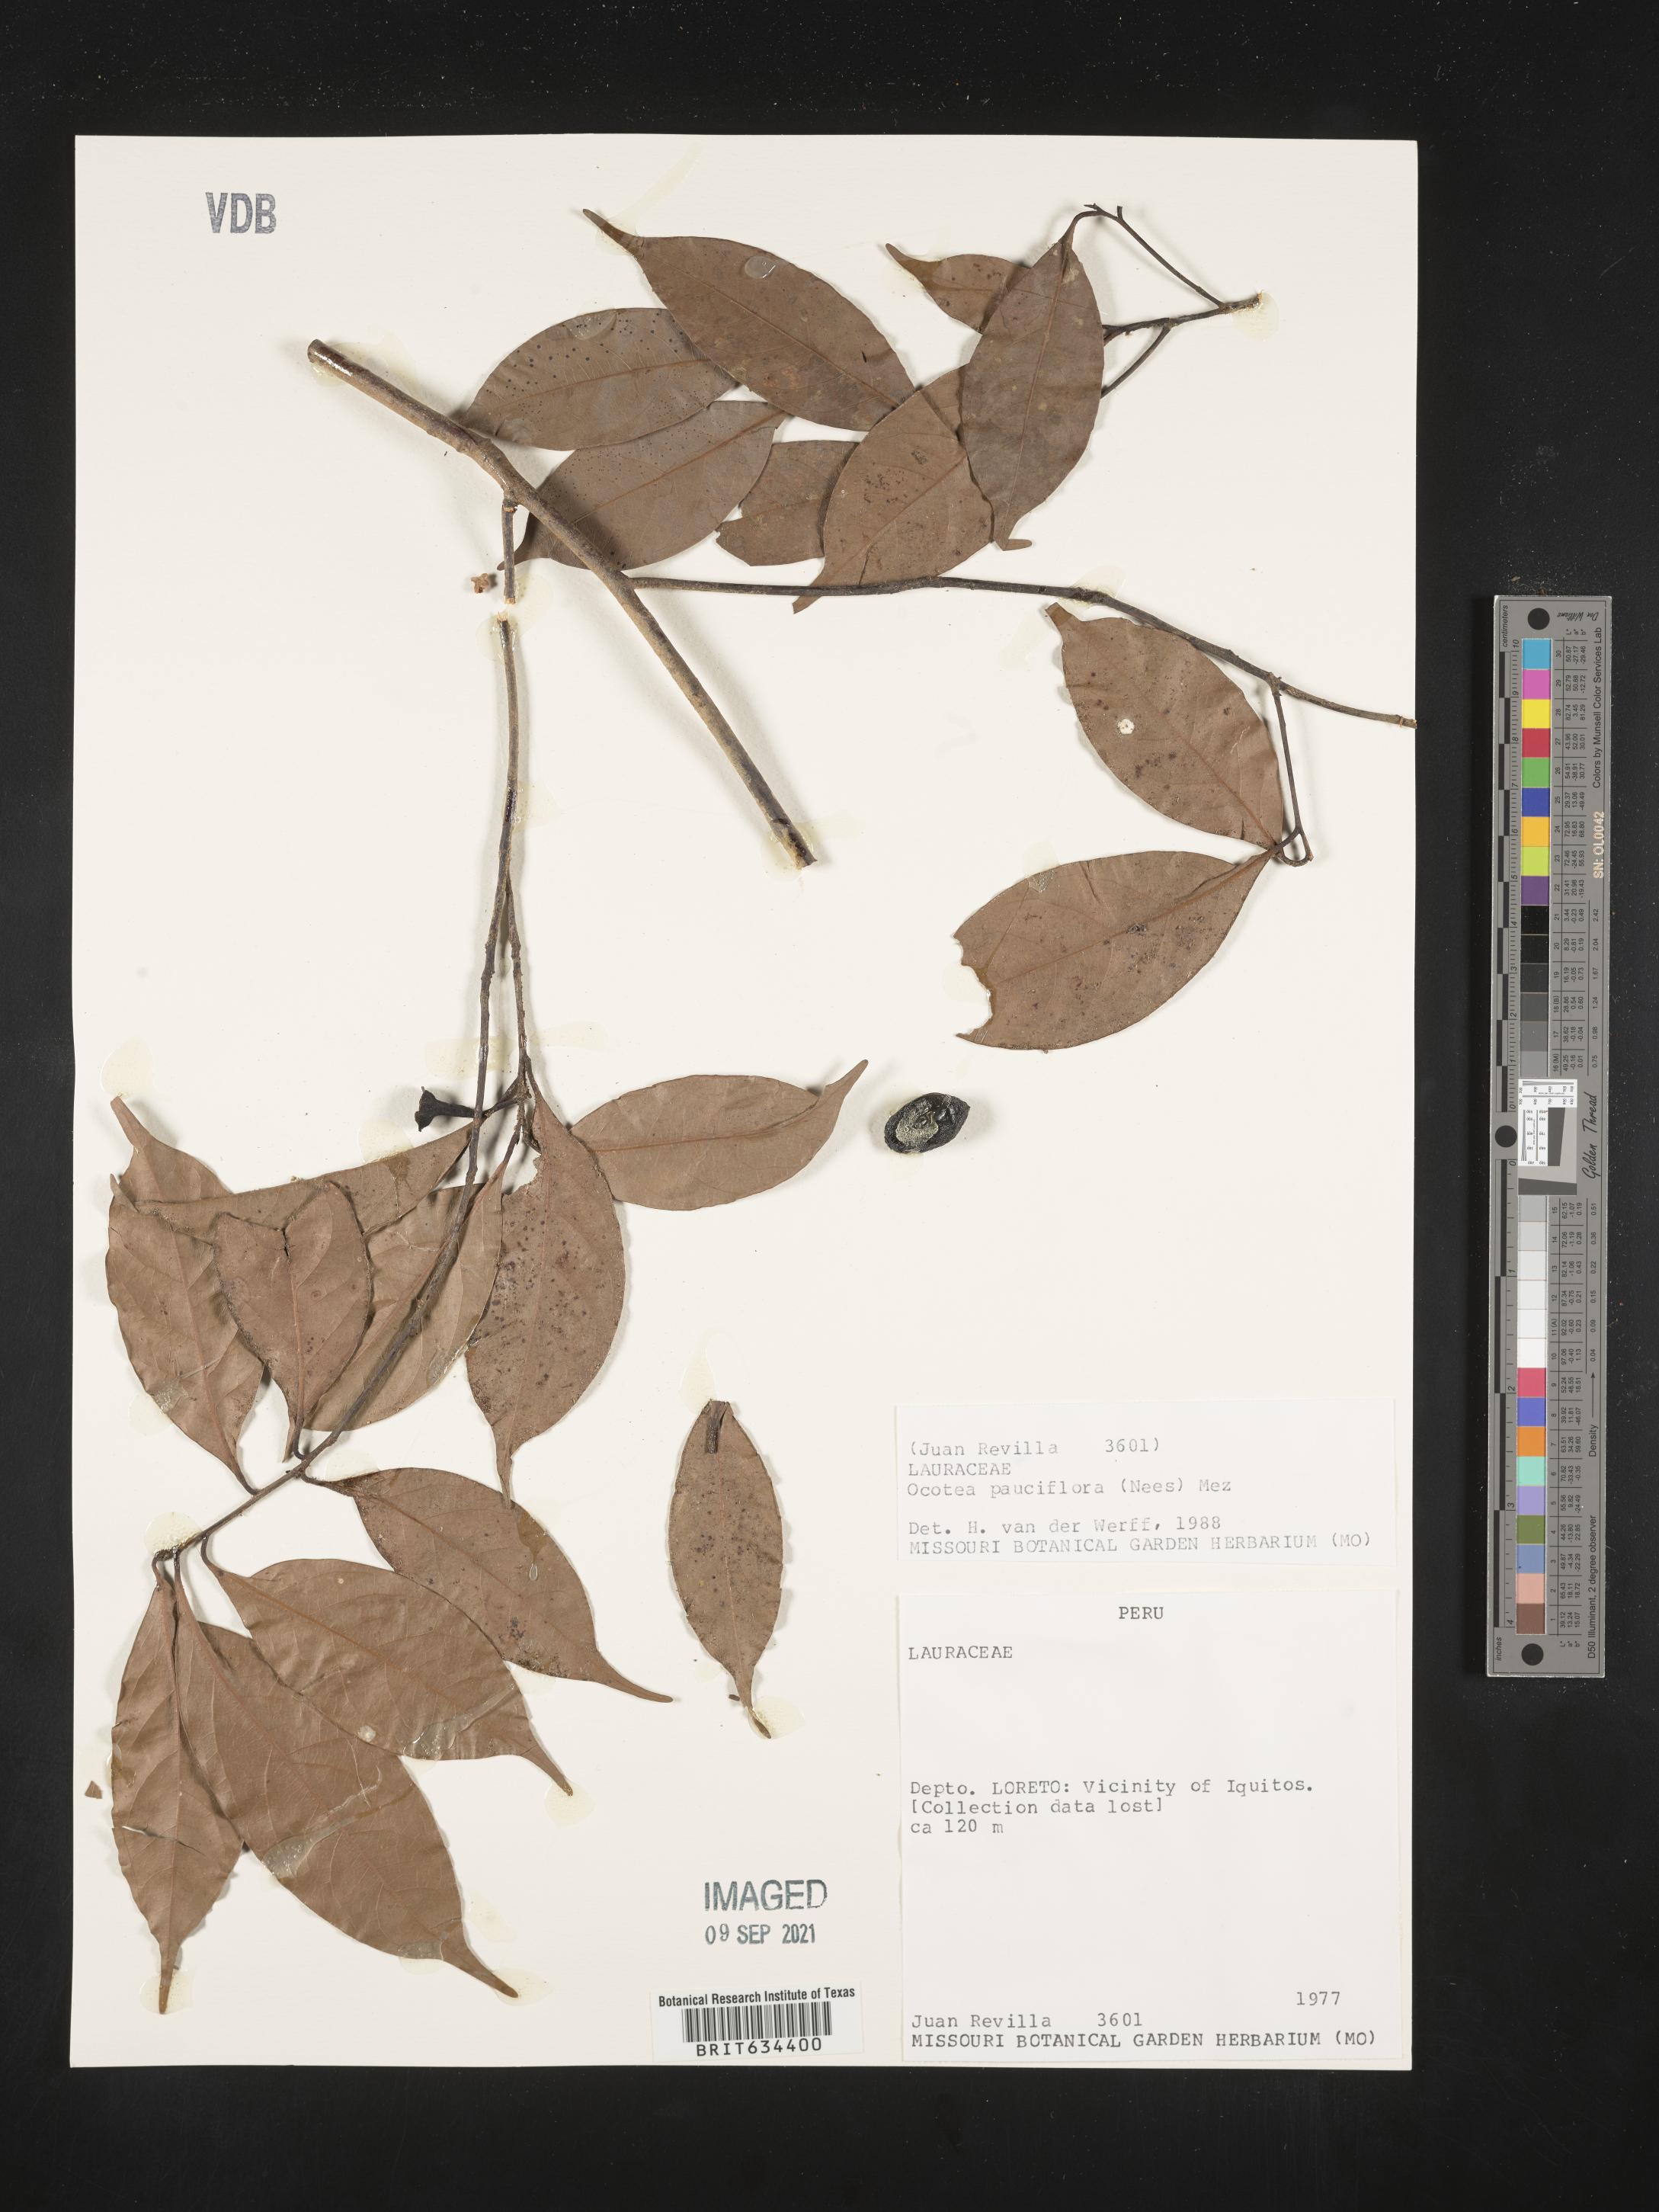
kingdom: Plantae
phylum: Tracheophyta
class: Magnoliopsida
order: Laurales
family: Lauraceae
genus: Ocotea
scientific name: Ocotea
